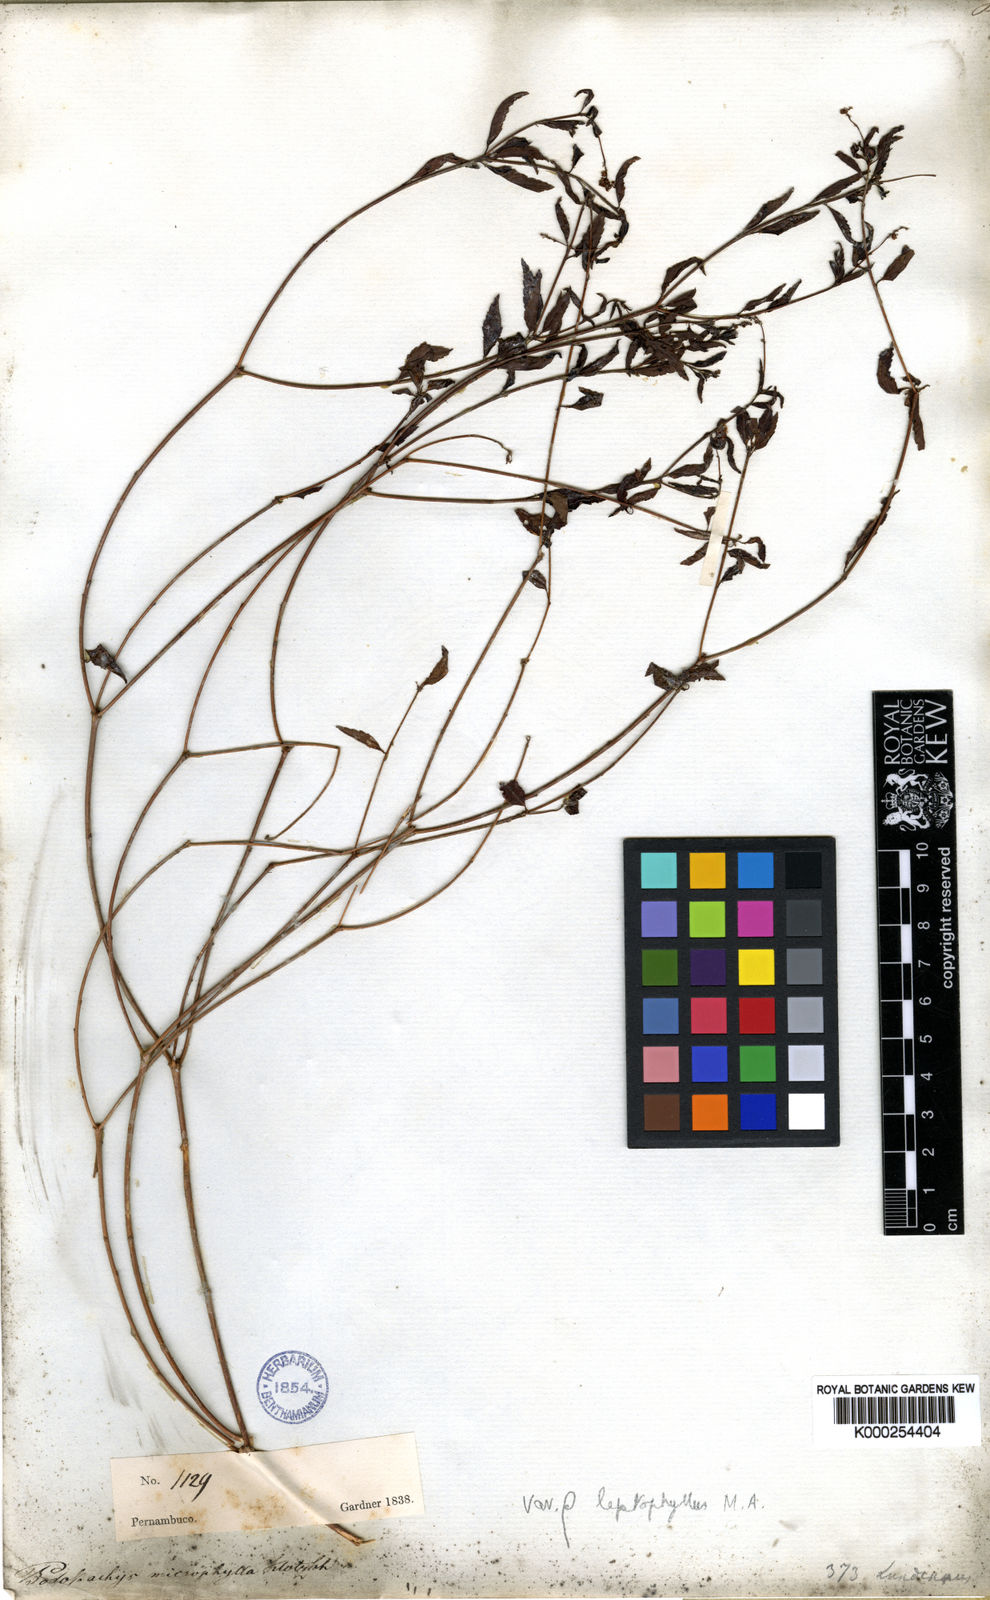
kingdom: Plantae
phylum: Tracheophyta
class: Magnoliopsida
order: Malpighiales
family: Euphorbiaceae
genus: Croton
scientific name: Croton
